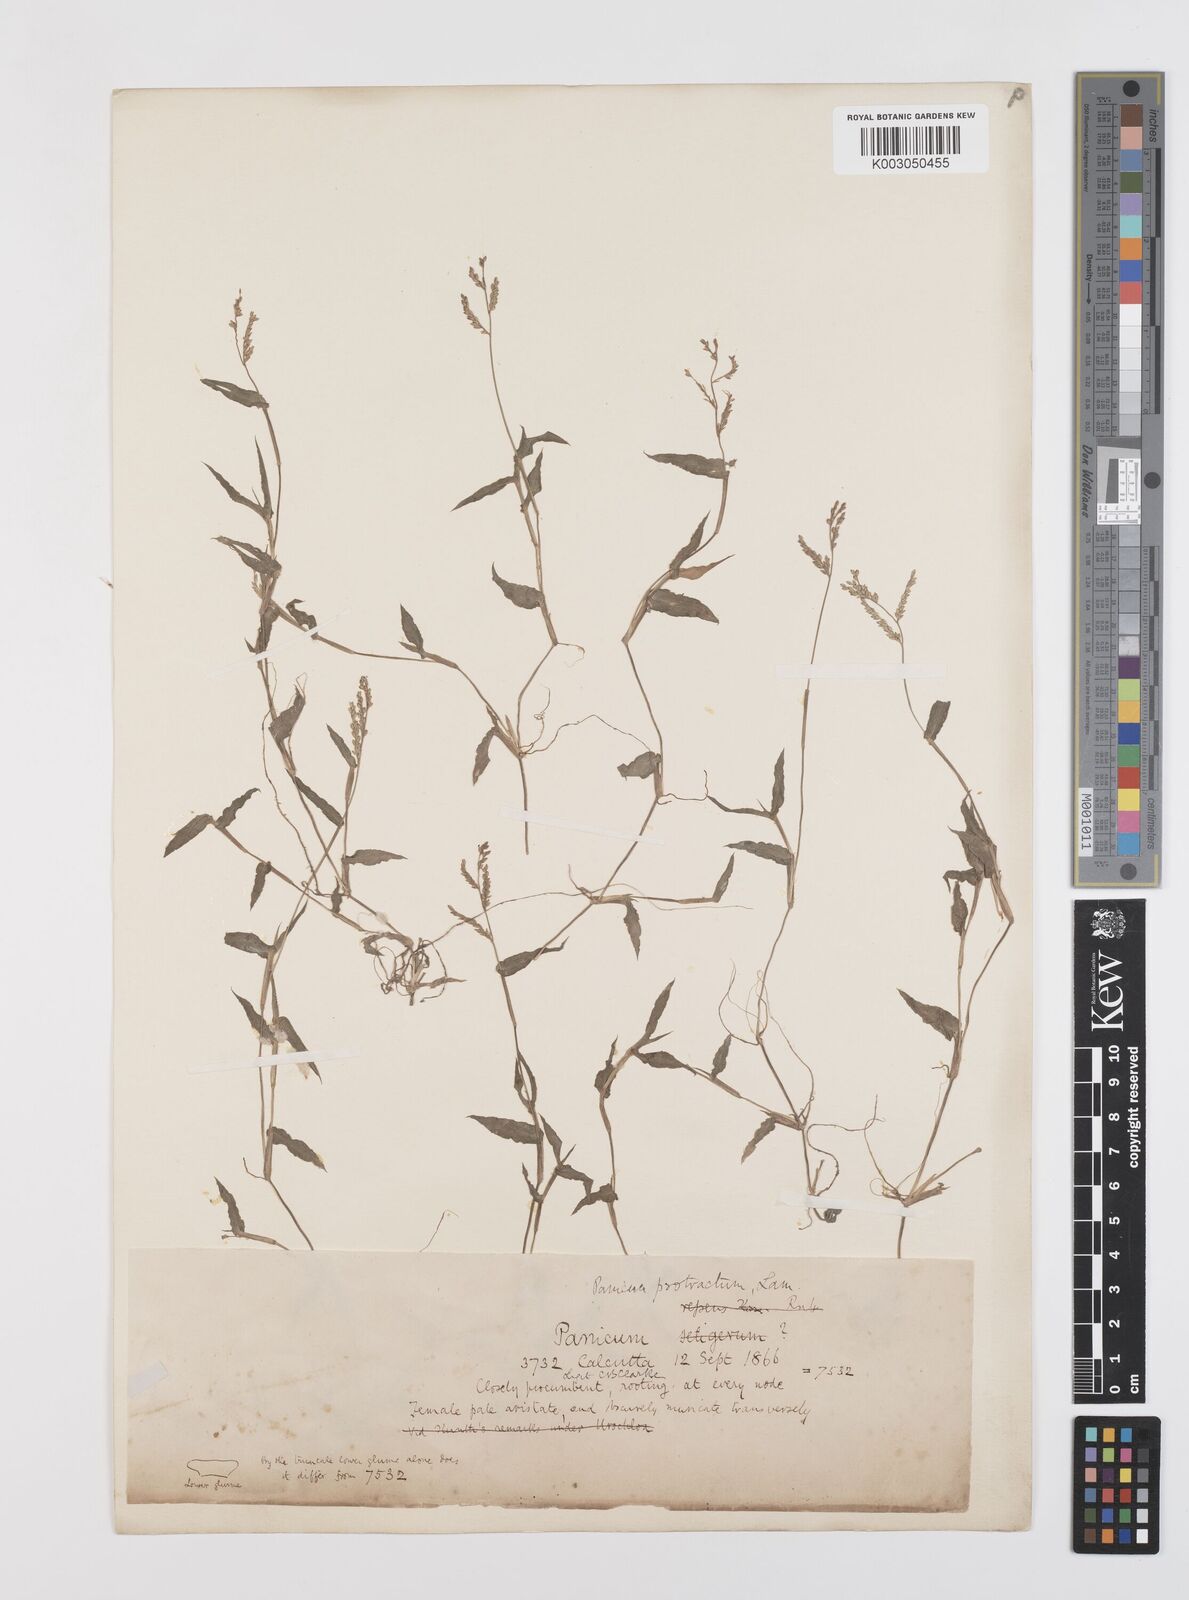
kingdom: Plantae
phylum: Tracheophyta
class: Liliopsida
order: Poales
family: Poaceae
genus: Urochloa
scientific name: Urochloa reptans
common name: Sprawling signalgrass
